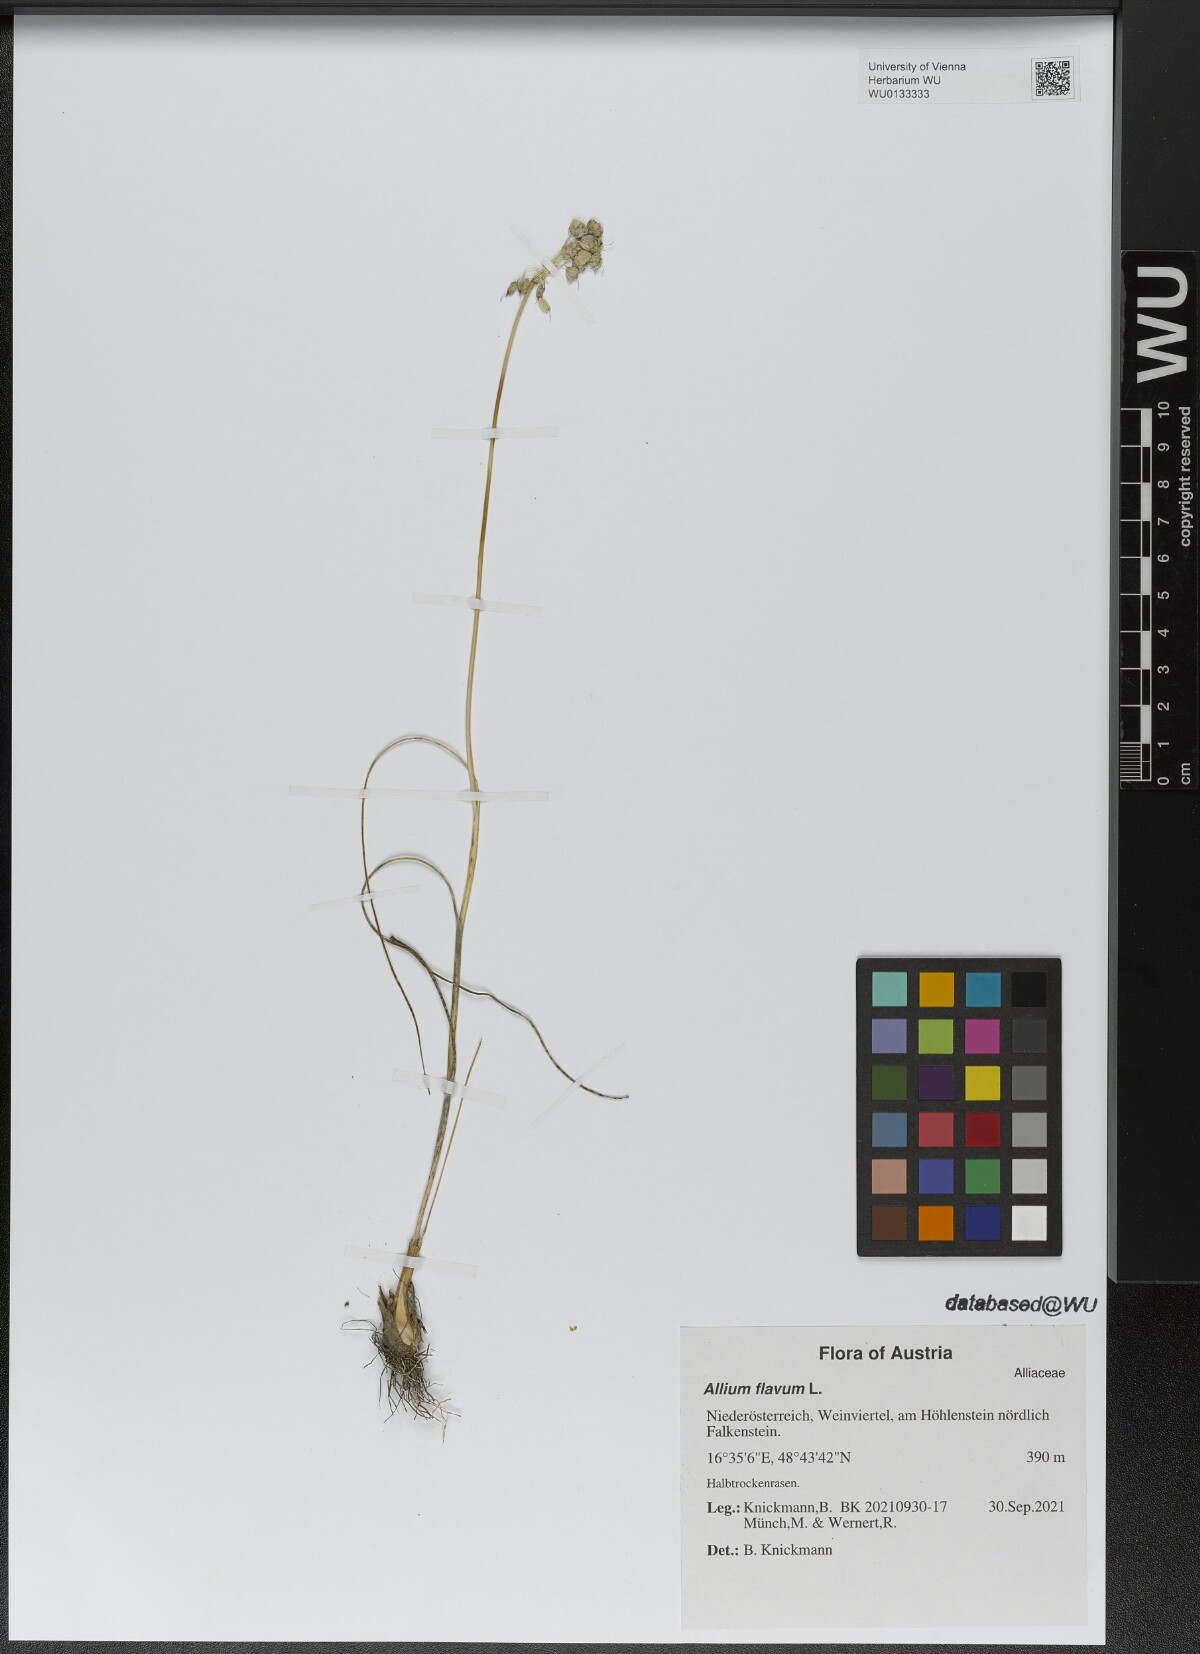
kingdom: Plantae
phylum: Tracheophyta
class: Liliopsida
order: Asparagales
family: Amaryllidaceae
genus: Allium
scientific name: Allium flavum
